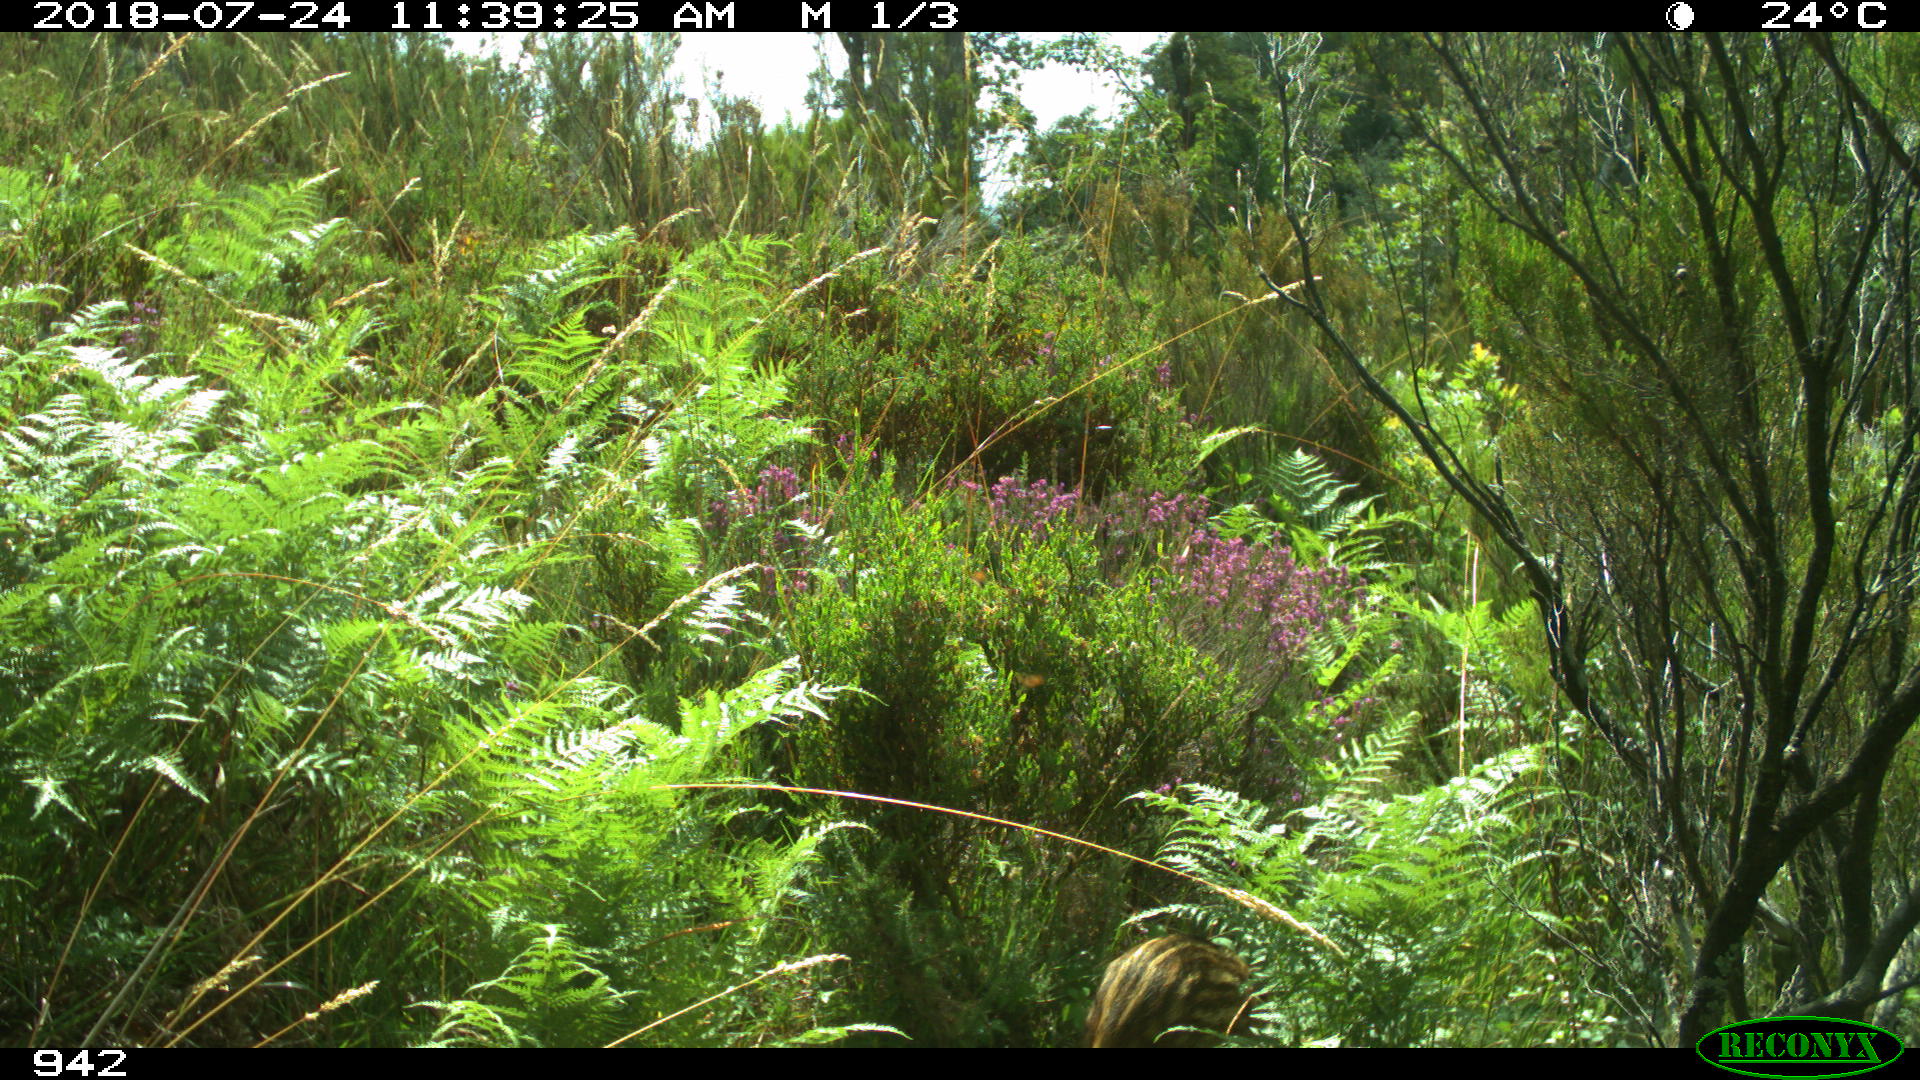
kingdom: Animalia
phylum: Chordata
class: Mammalia
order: Artiodactyla
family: Suidae
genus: Sus
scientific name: Sus scrofa
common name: Wild boar
